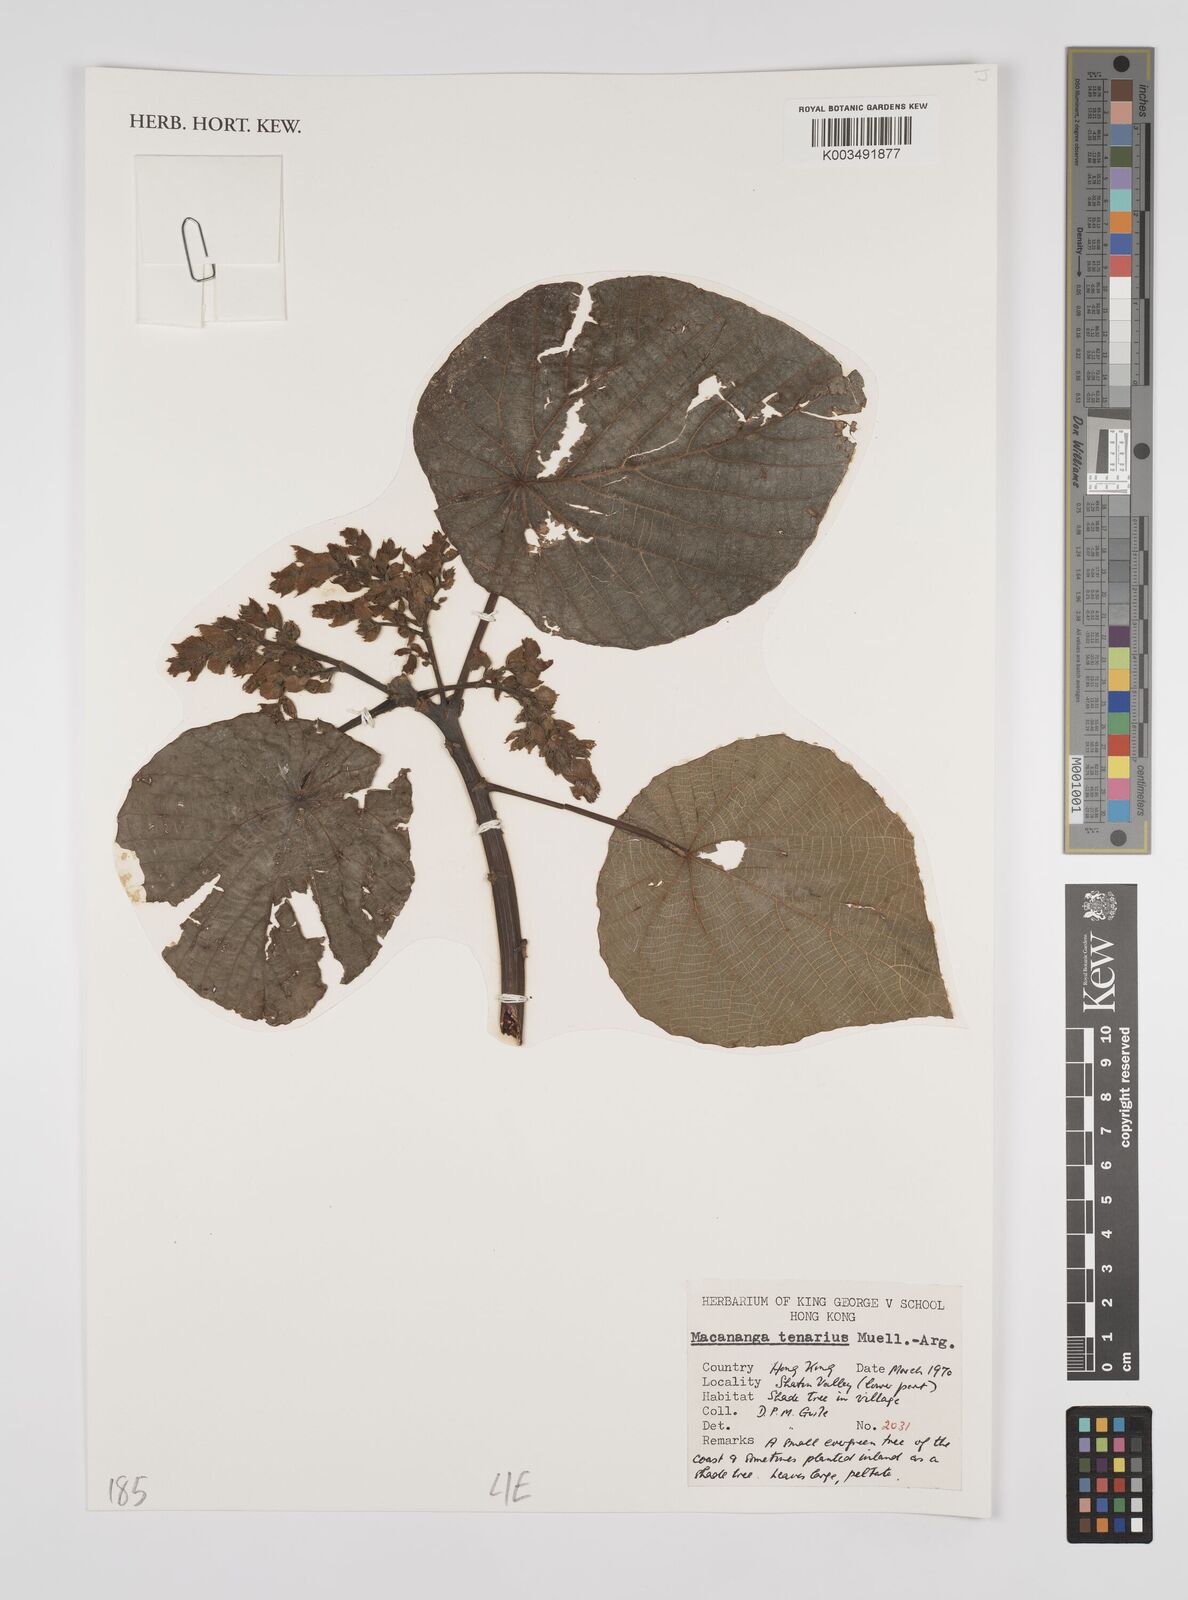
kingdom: Plantae
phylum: Tracheophyta
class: Magnoliopsida
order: Malpighiales
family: Euphorbiaceae
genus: Macaranga
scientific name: Macaranga tanarius
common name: Parasol leaf tree
